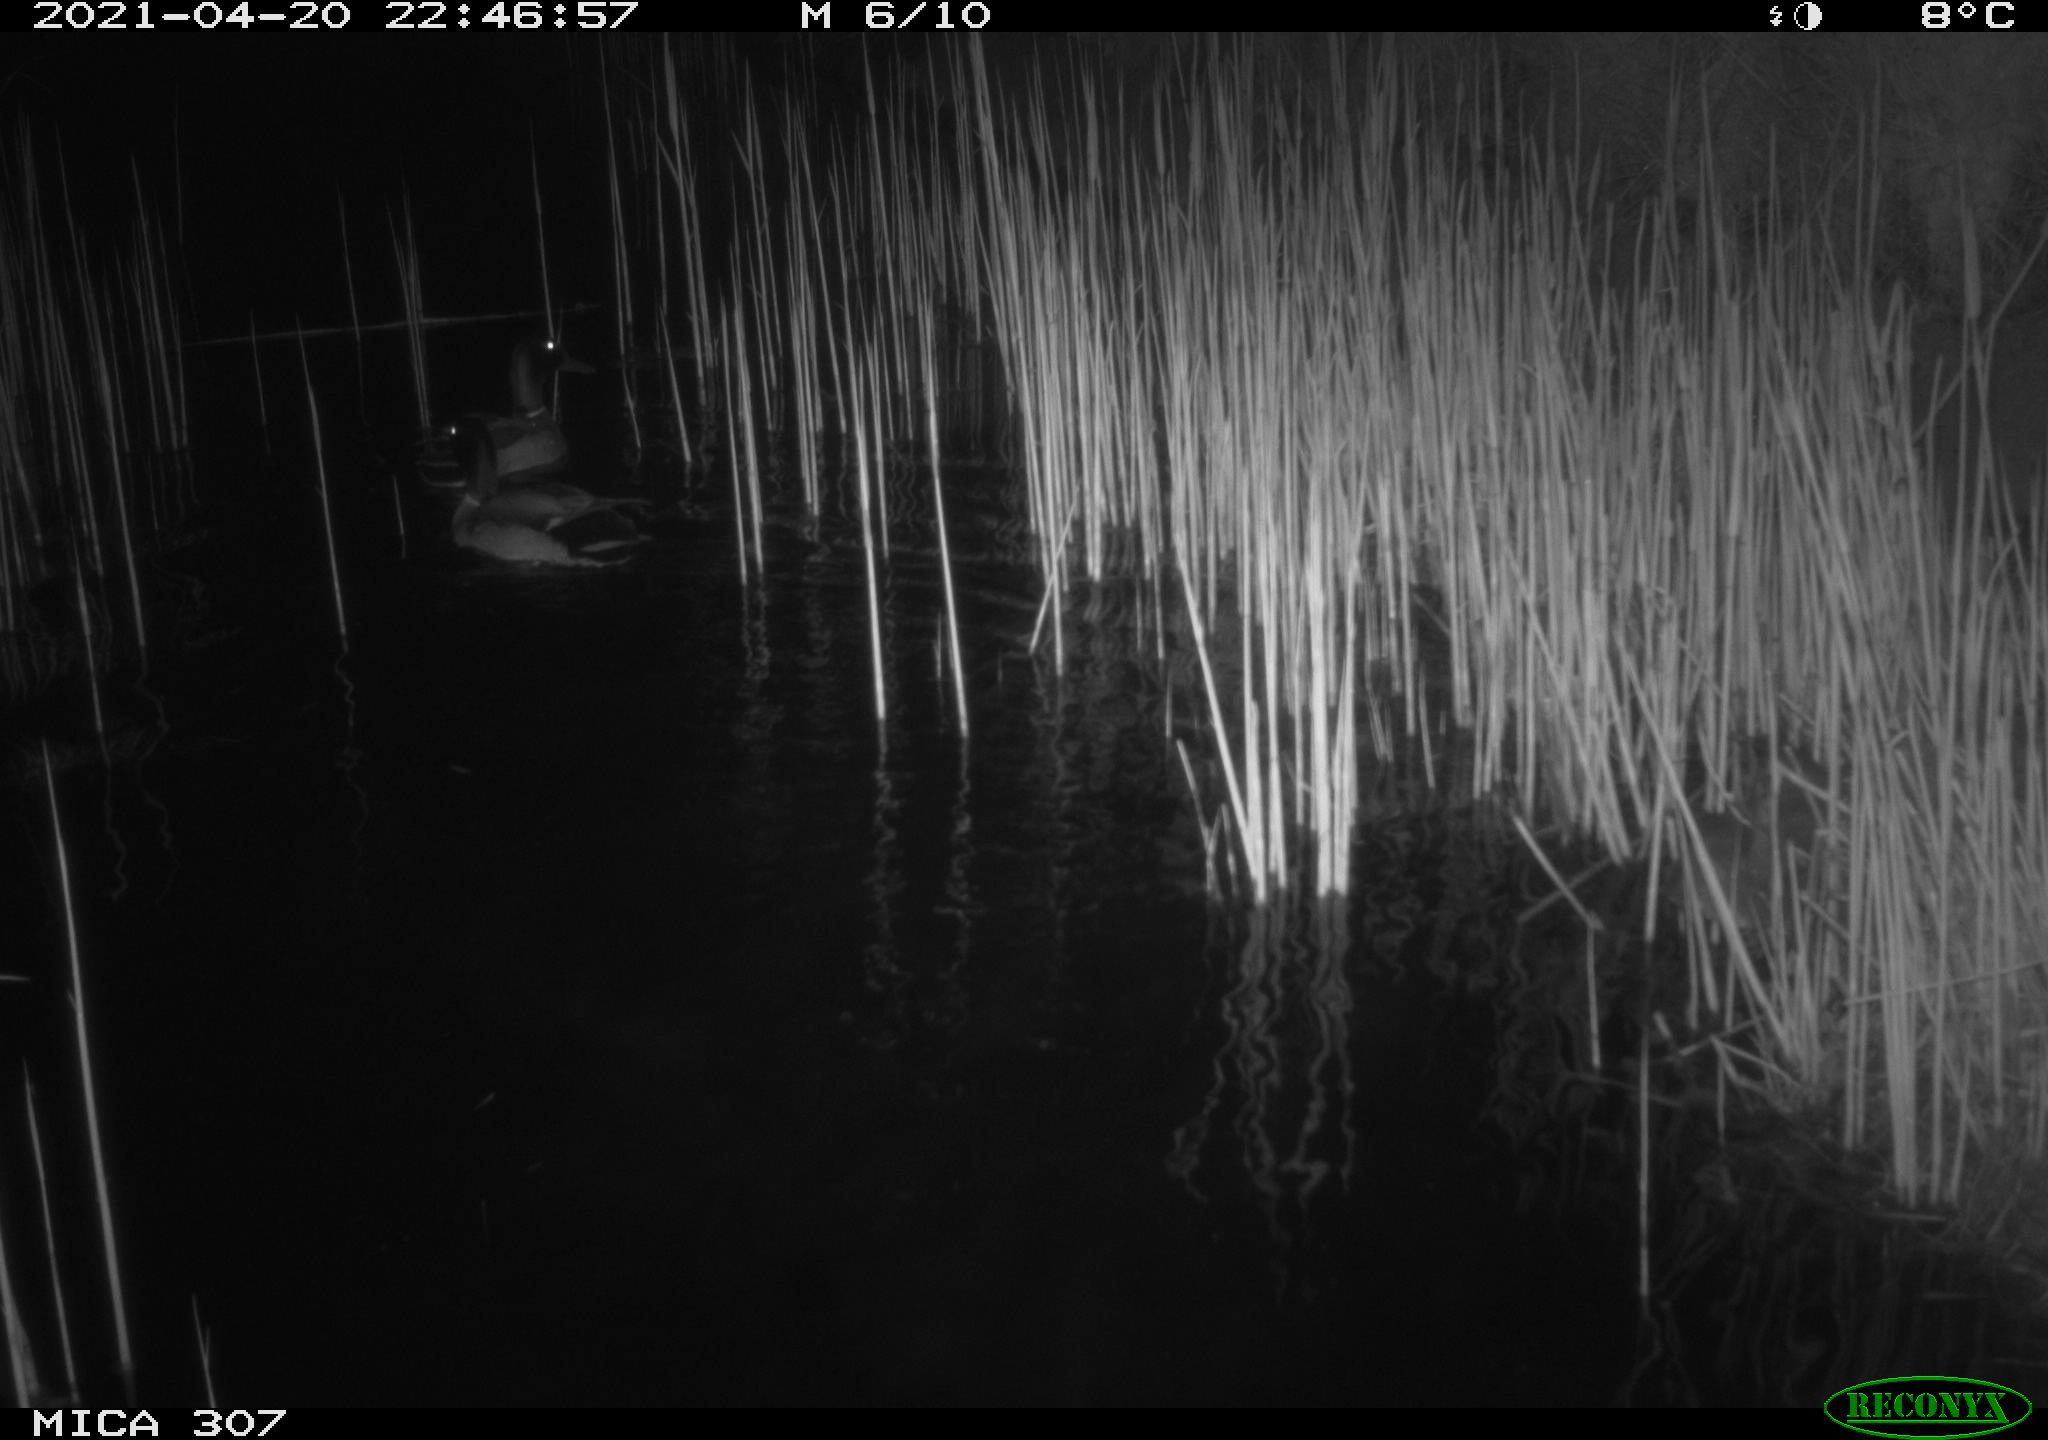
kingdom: Animalia
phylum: Chordata
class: Aves
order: Anseriformes
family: Anatidae
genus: Anas
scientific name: Anas platyrhynchos
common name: Mallard
